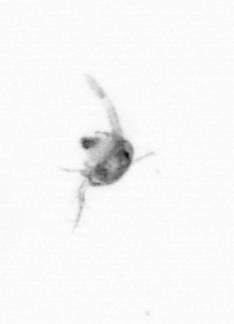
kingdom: Animalia
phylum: Arthropoda
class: Copepoda
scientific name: Copepoda
